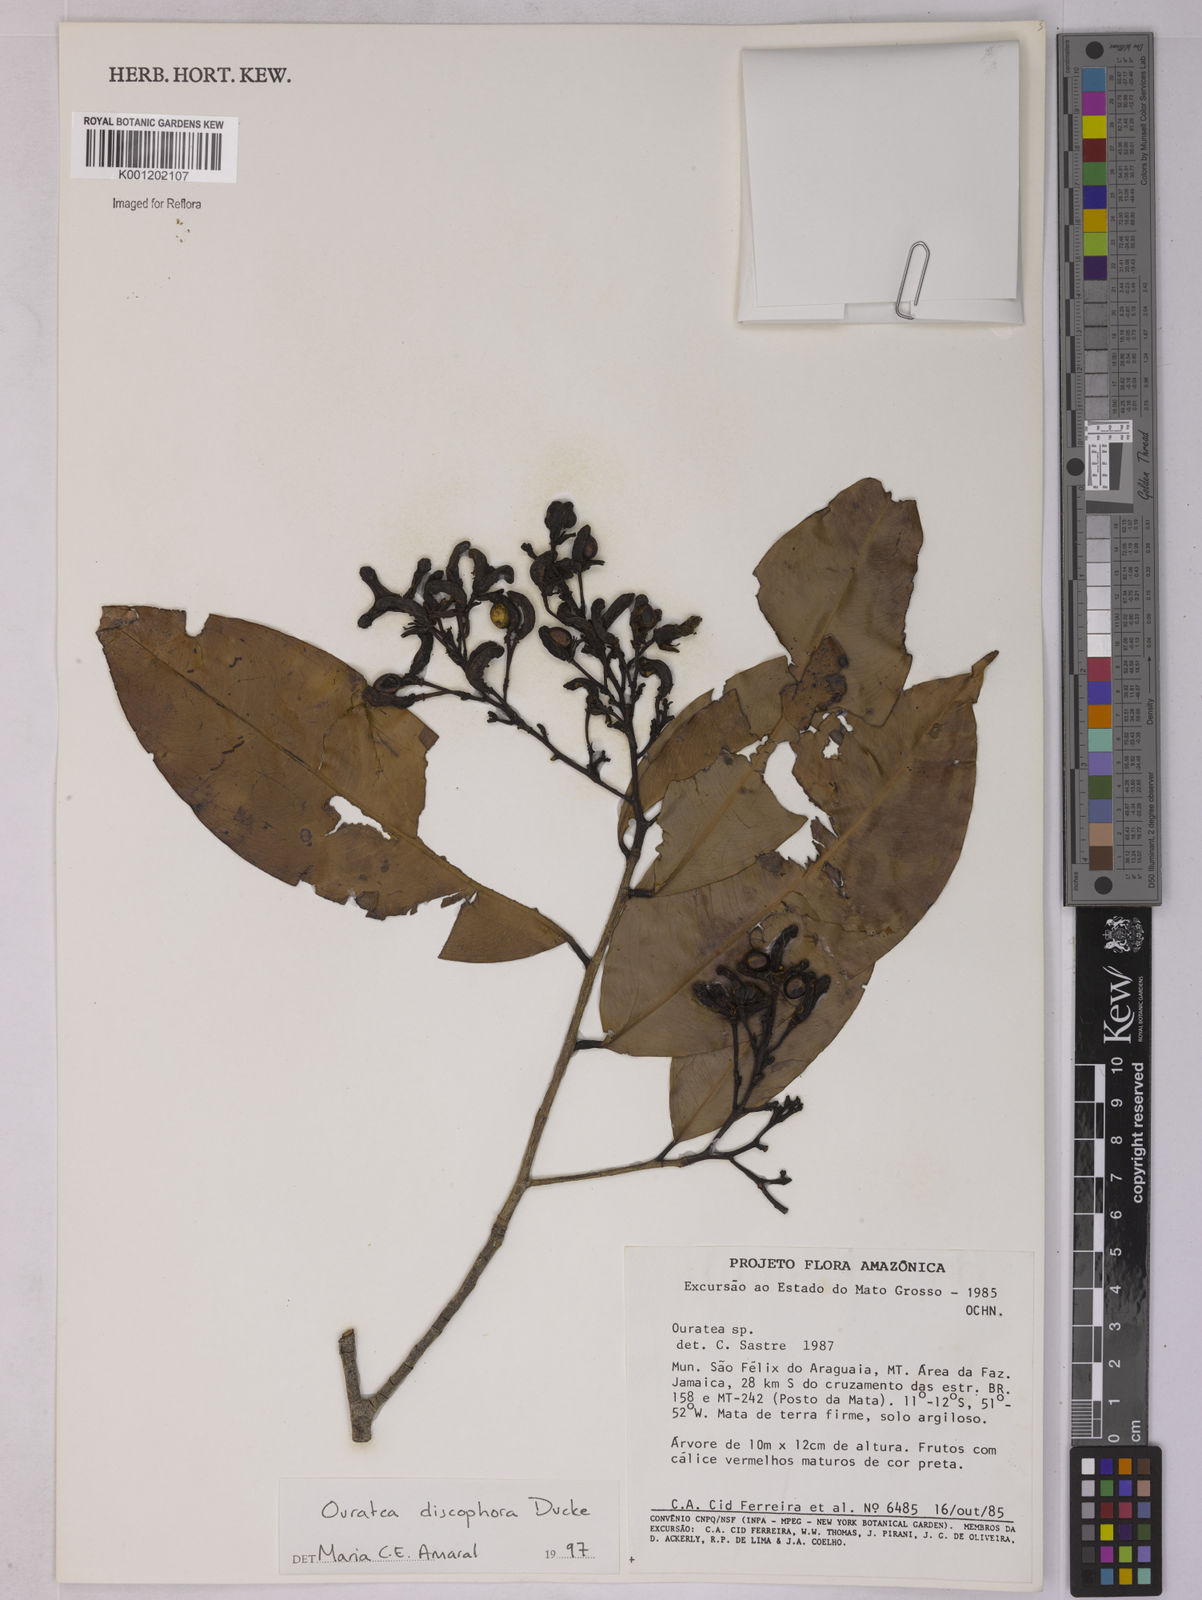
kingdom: Plantae
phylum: Tracheophyta
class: Magnoliopsida
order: Malpighiales
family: Ochnaceae
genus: Ouratea
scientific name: Ouratea discophora
